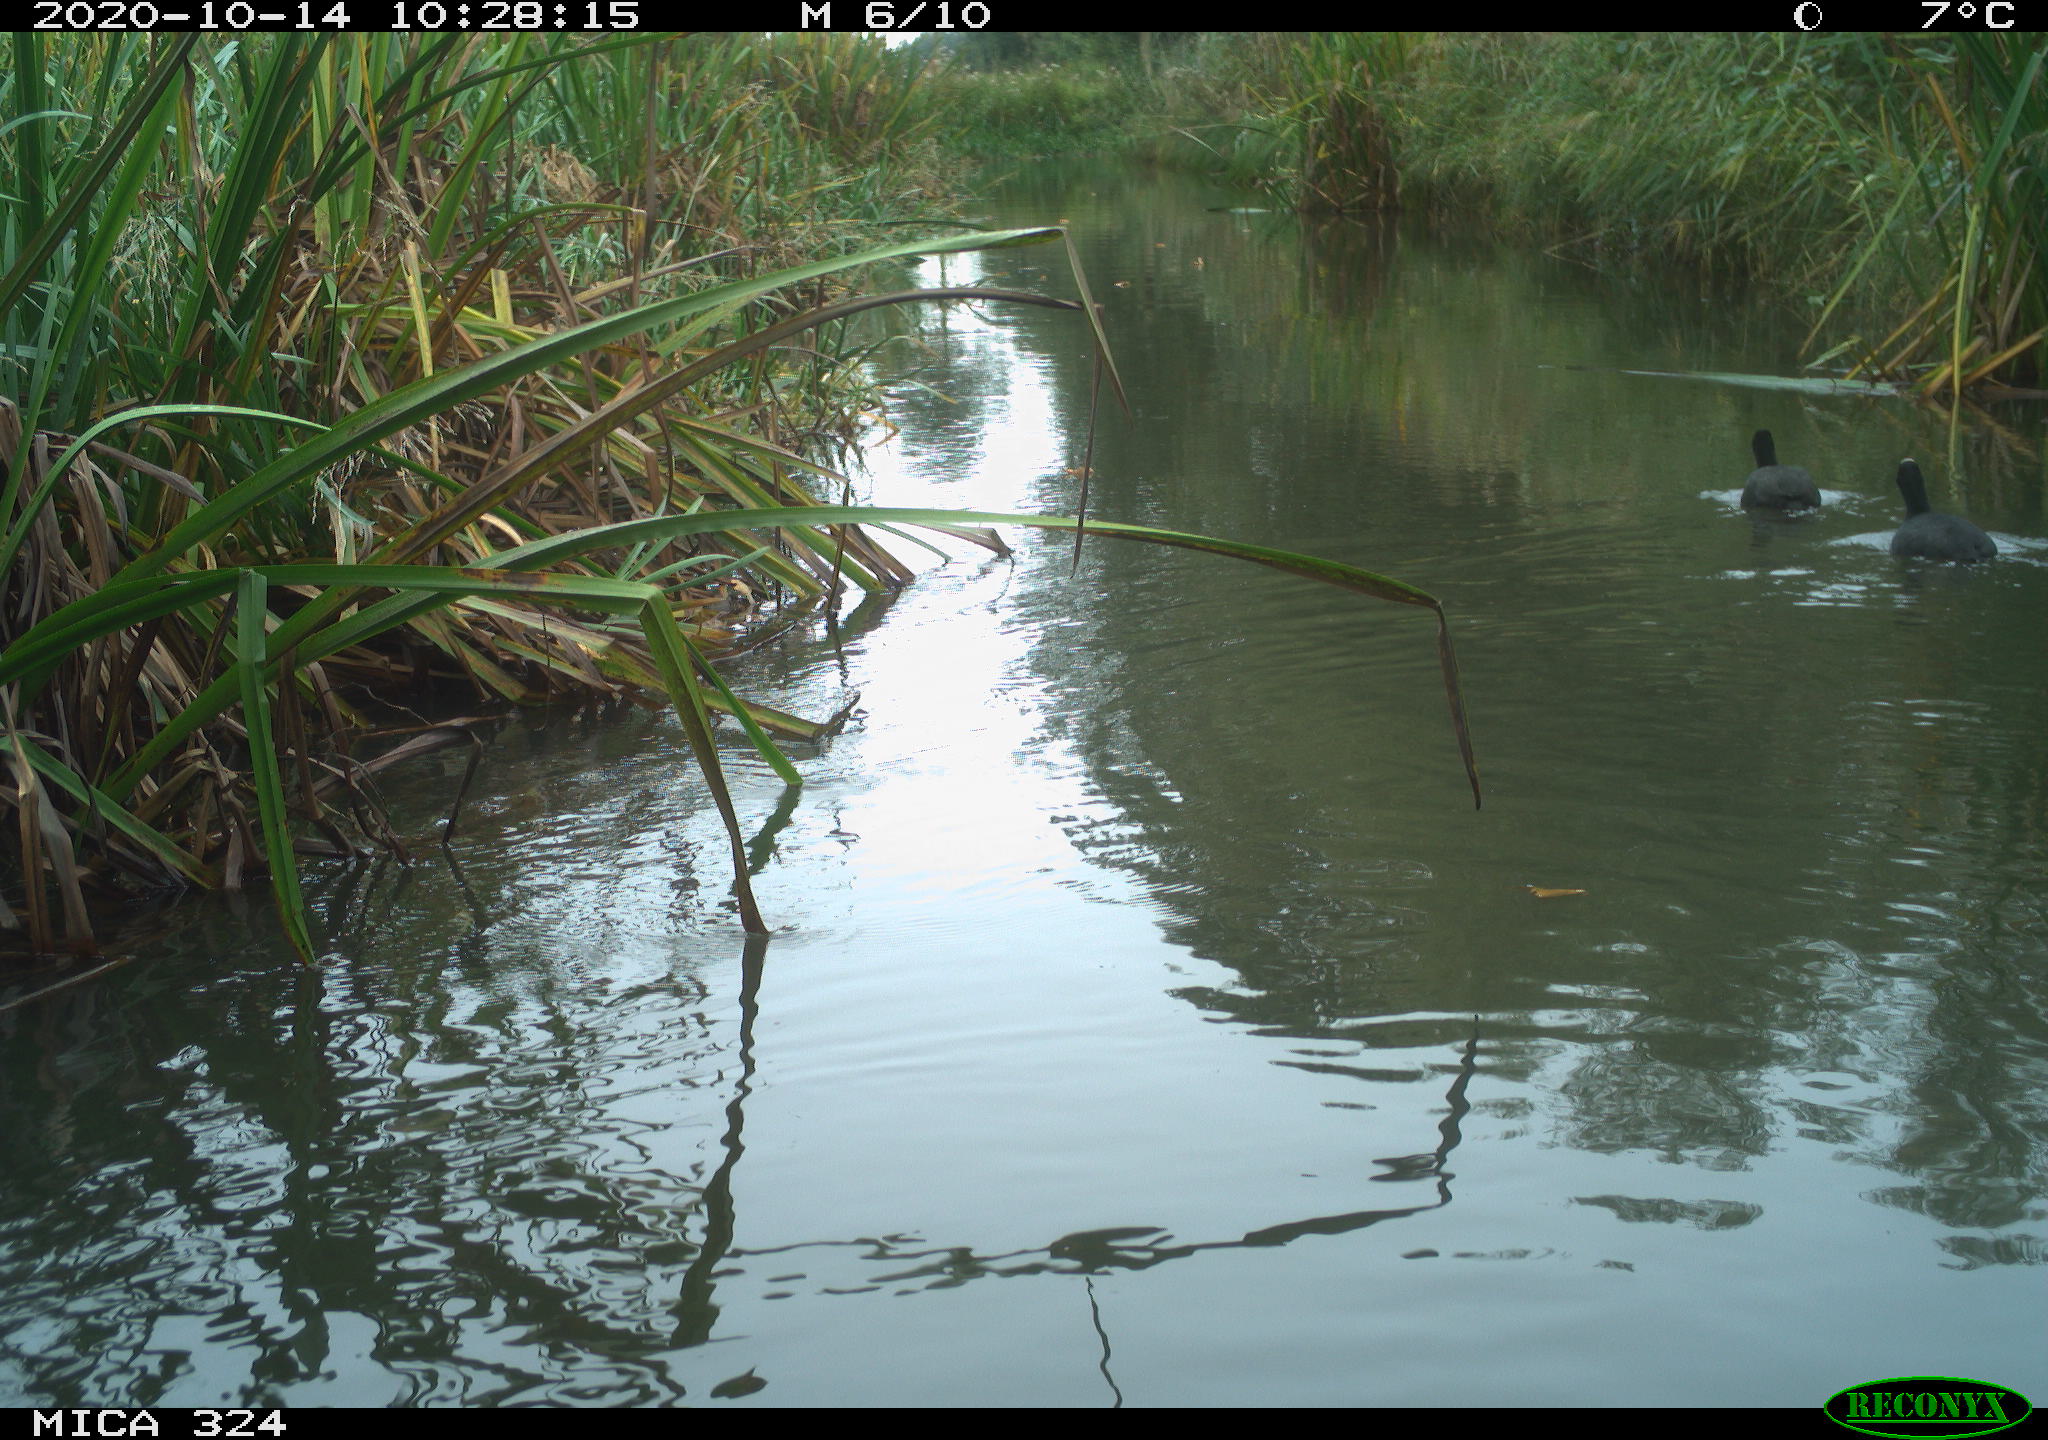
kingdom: Animalia
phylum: Chordata
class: Aves
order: Gruiformes
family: Rallidae
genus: Fulica
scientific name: Fulica atra
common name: Eurasian coot
